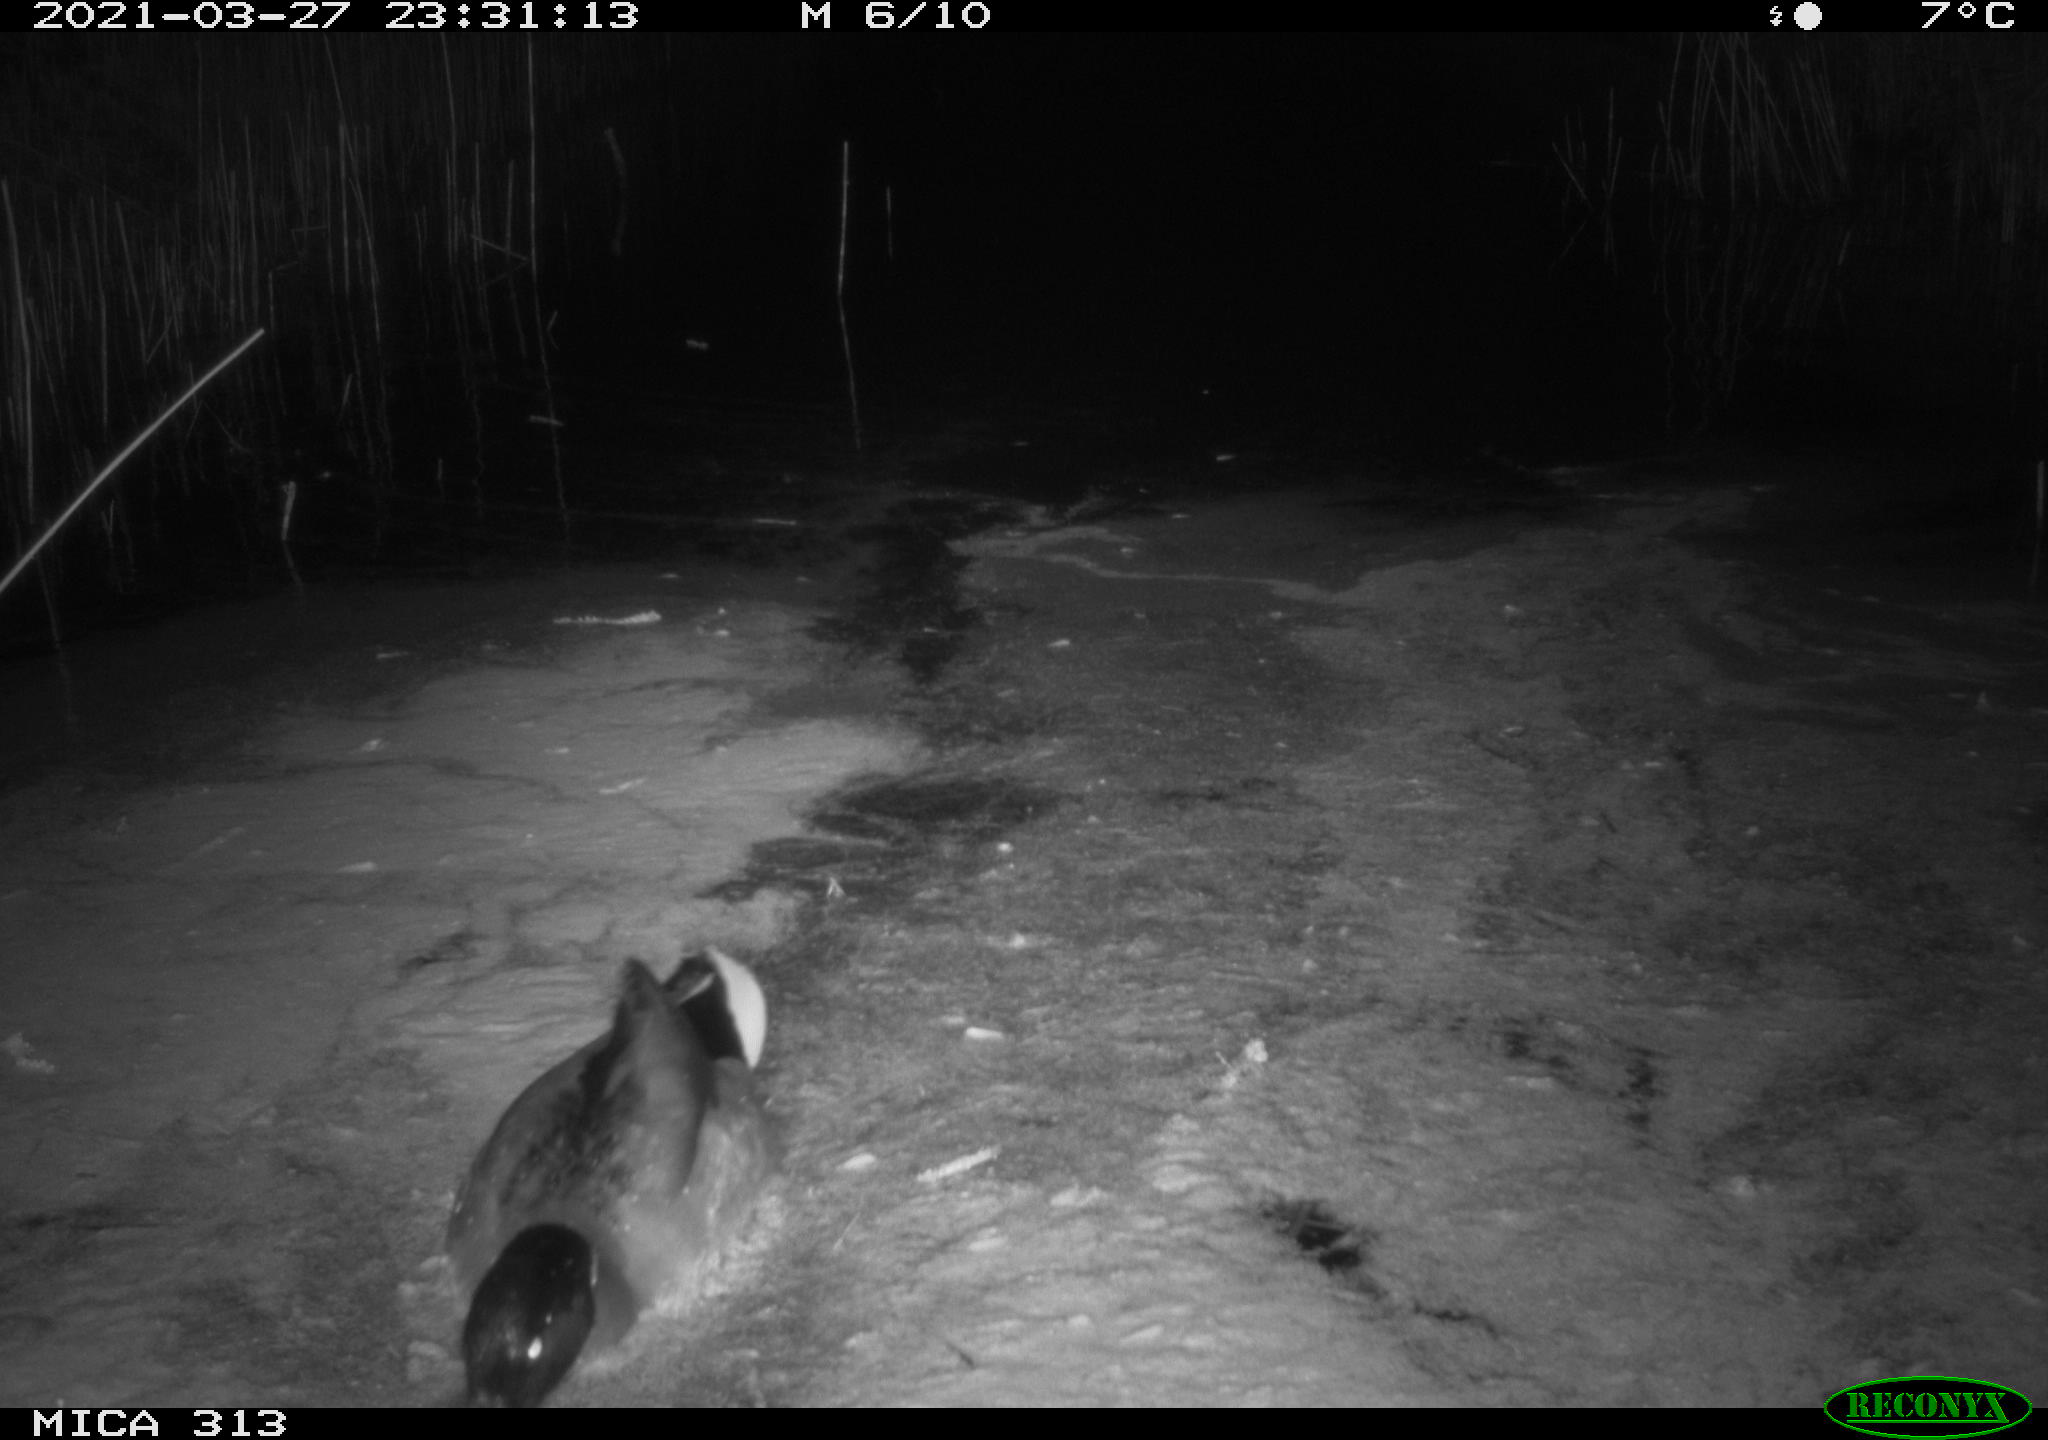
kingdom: Animalia
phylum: Chordata
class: Aves
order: Anseriformes
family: Anatidae
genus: Anas
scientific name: Anas platyrhynchos
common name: Mallard
